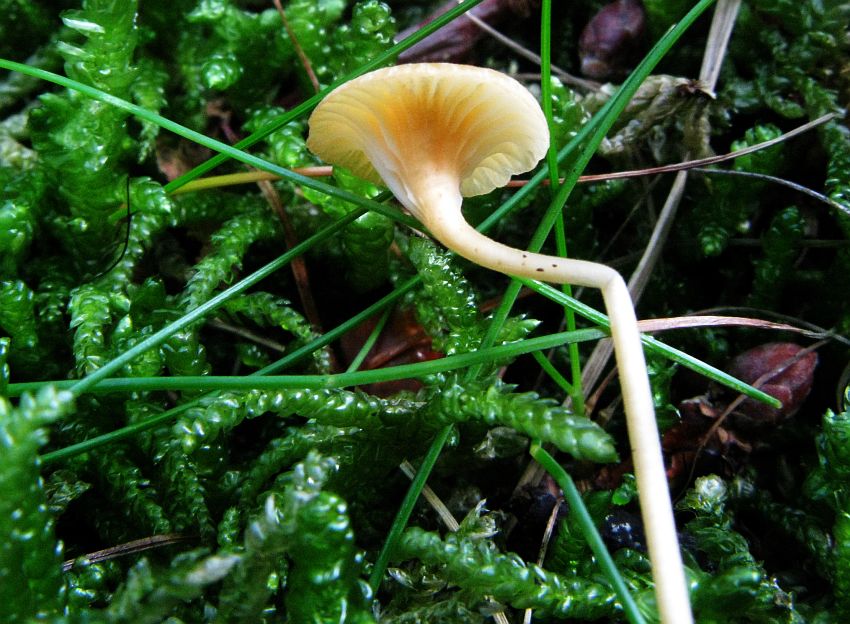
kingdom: Fungi
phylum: Basidiomycota
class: Agaricomycetes
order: Hymenochaetales
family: Rickenellaceae
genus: Rickenella
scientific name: Rickenella fibula
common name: orange mosnavlehat
